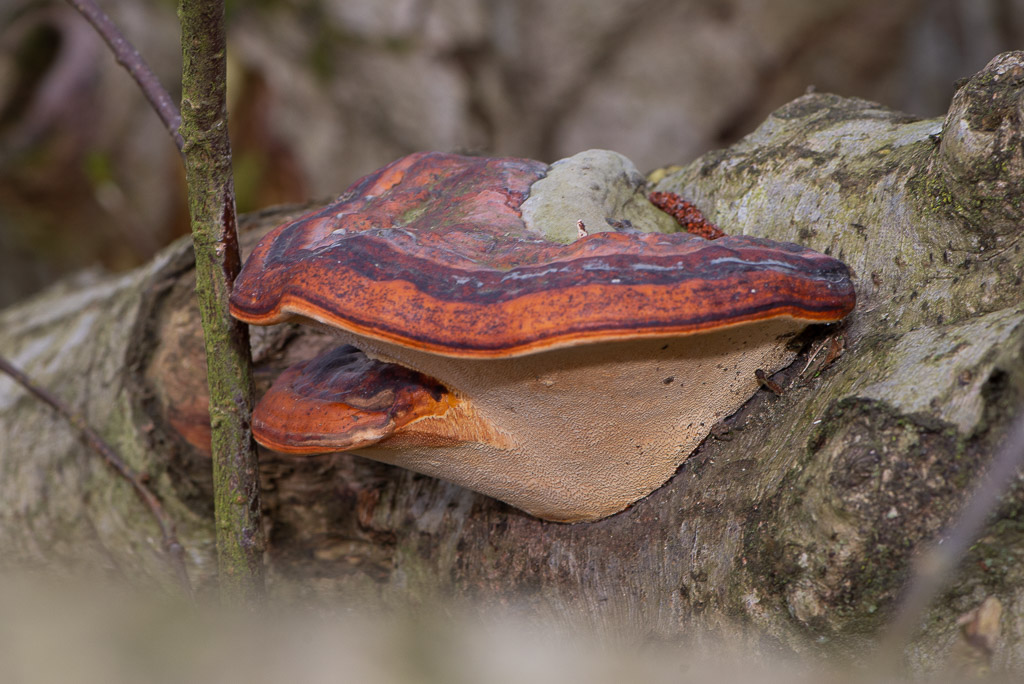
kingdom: Fungi
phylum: Basidiomycota
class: Agaricomycetes
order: Polyporales
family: Fomitopsidaceae
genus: Fomitopsis
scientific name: Fomitopsis pinicola
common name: randbæltet hovporesvamp
